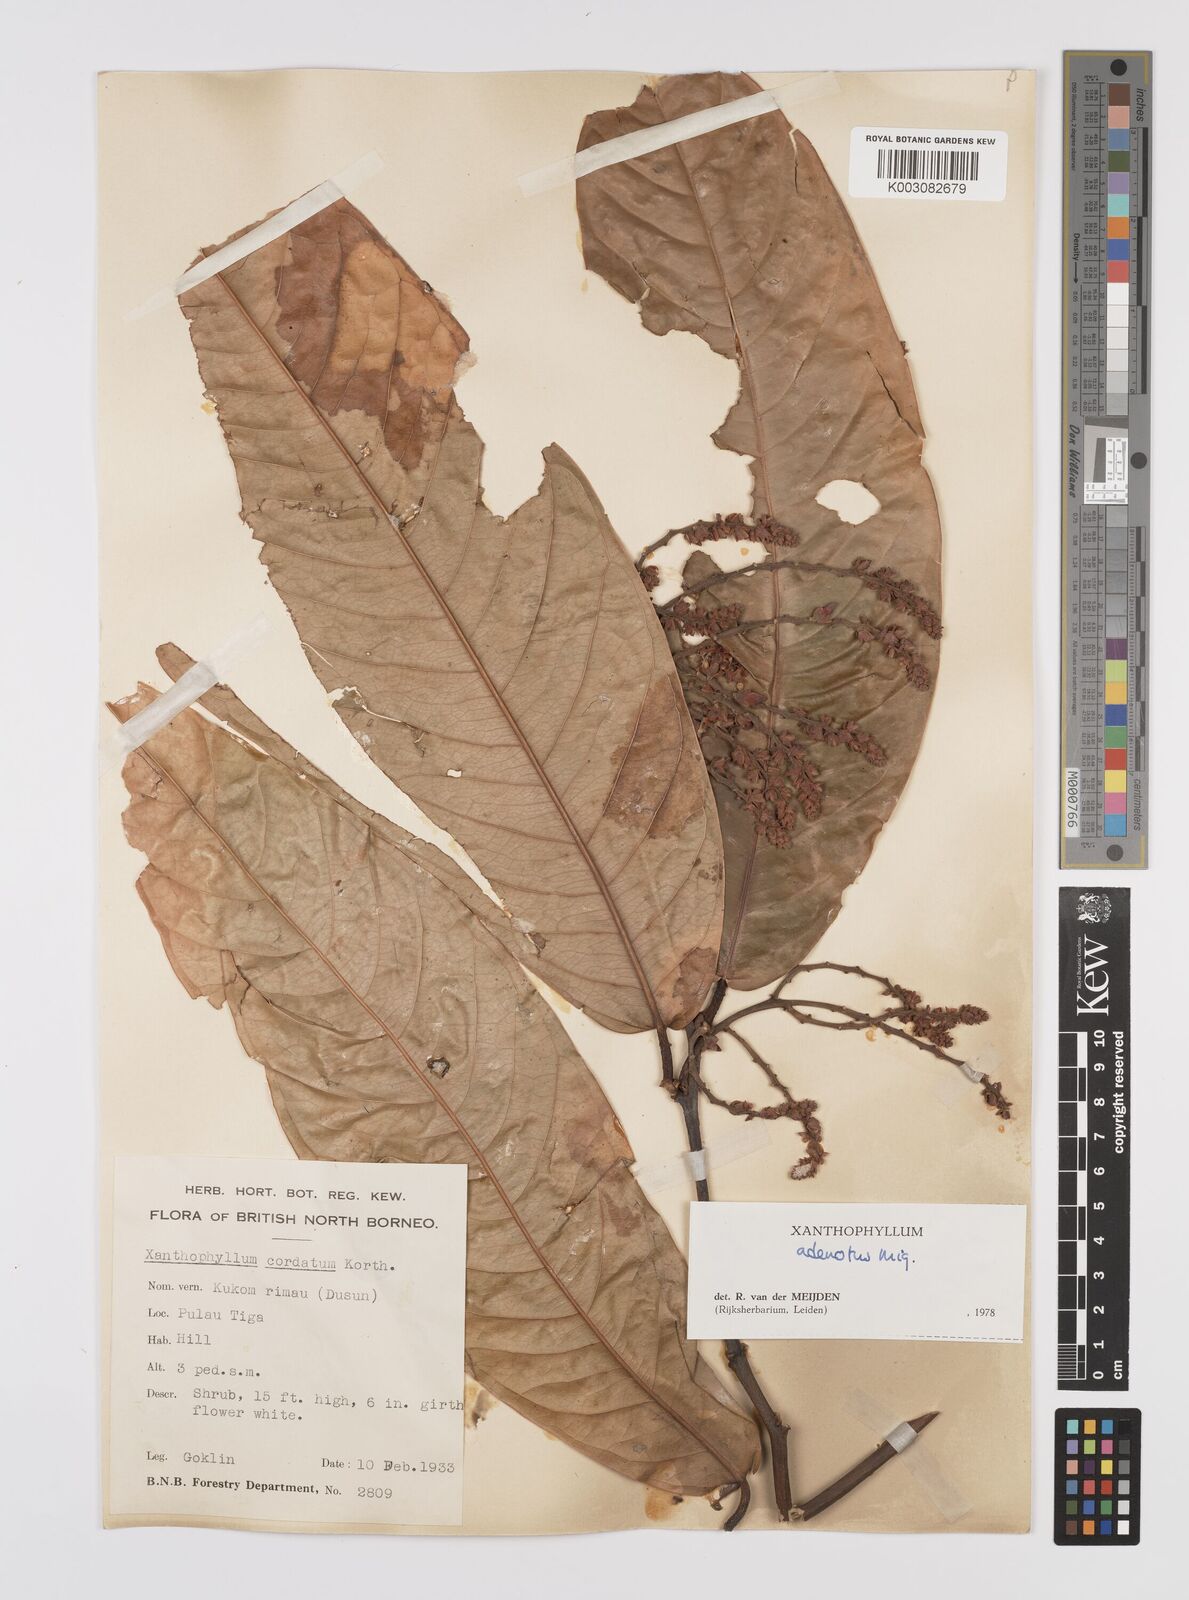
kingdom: Plantae
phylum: Tracheophyta
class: Magnoliopsida
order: Fabales
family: Polygalaceae
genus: Xanthophyllum
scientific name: Xanthophyllum adenotus
